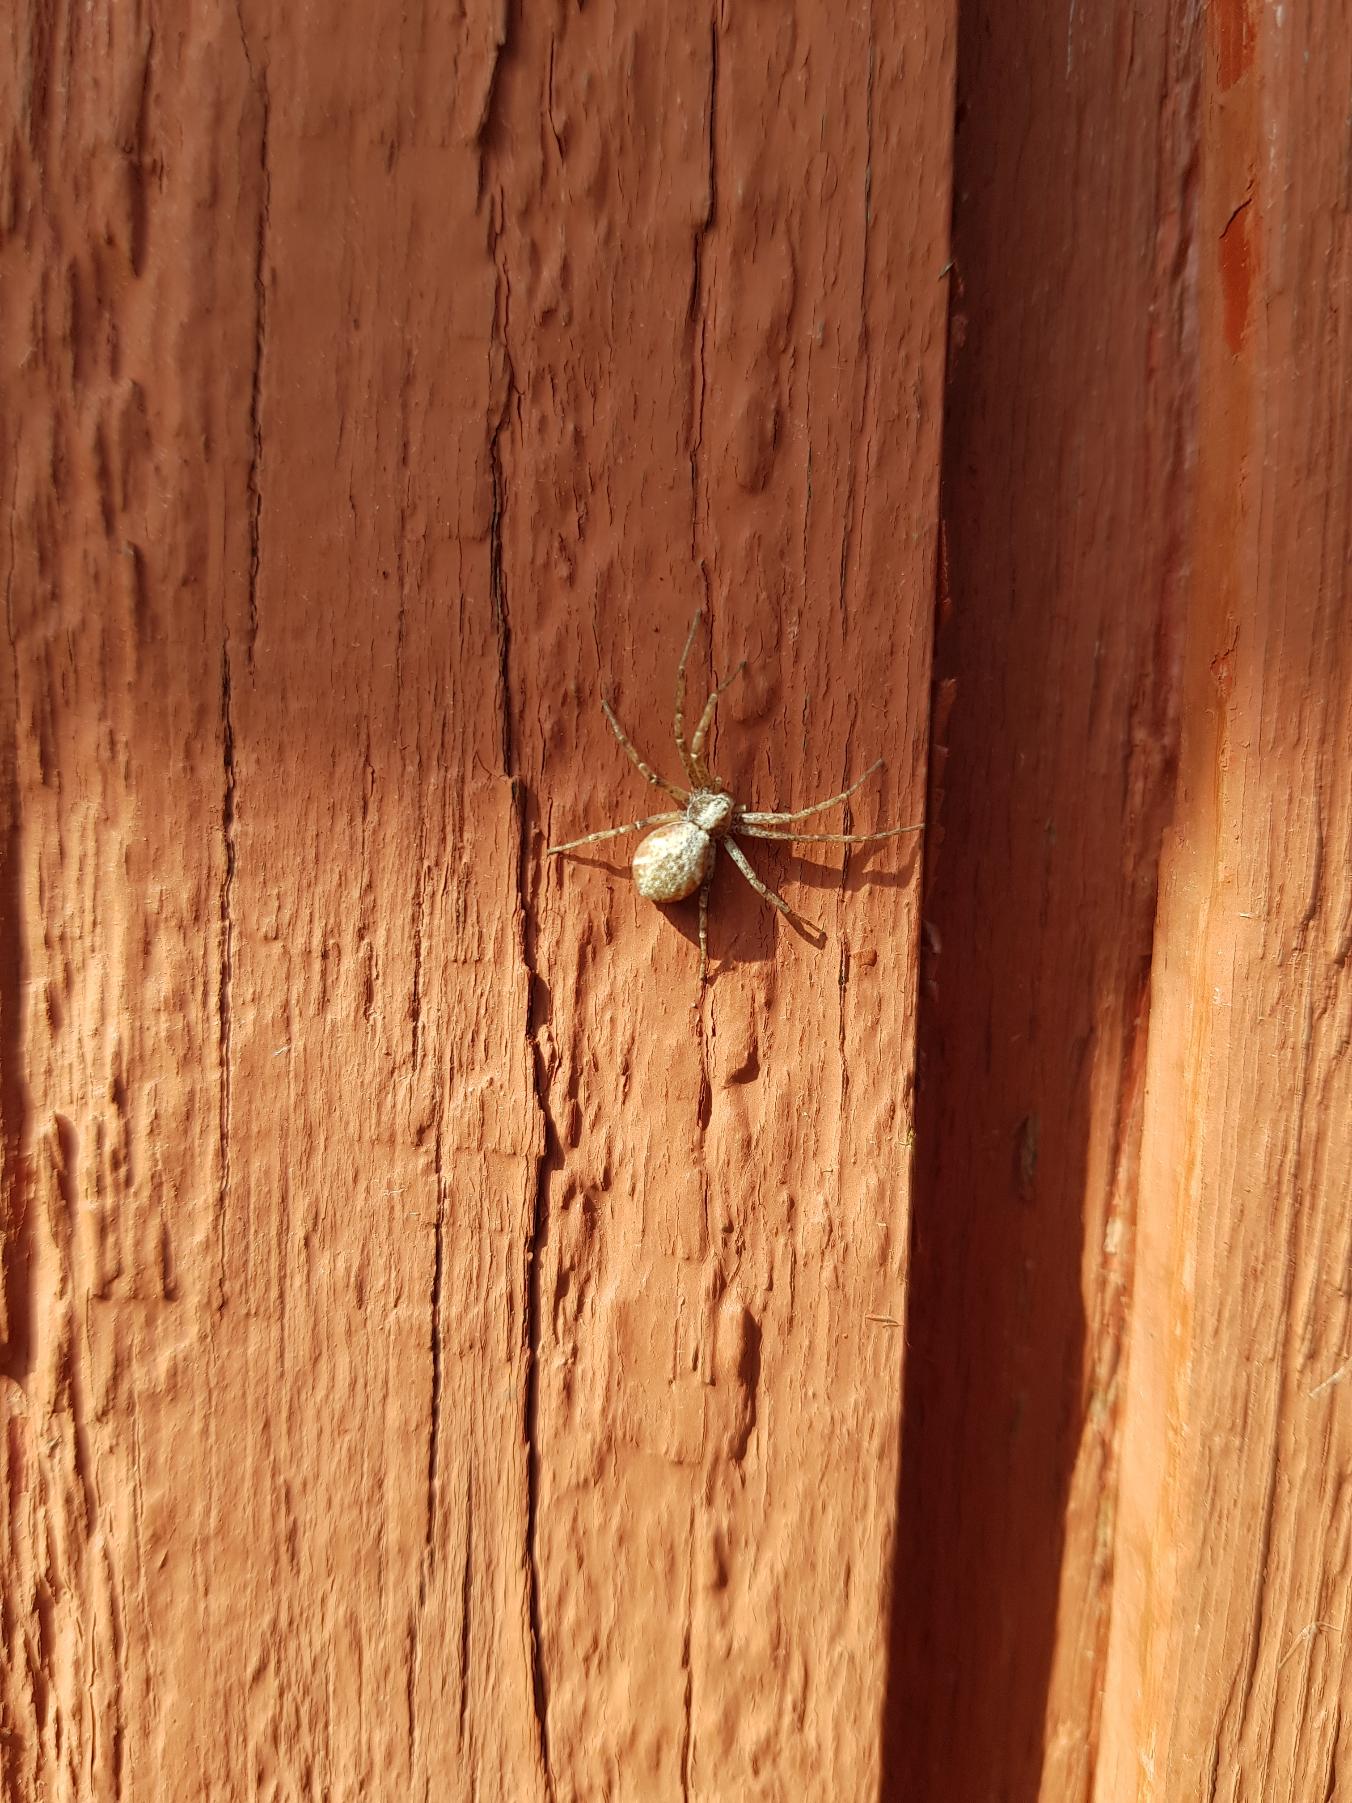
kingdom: Animalia
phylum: Arthropoda
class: Arachnida
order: Araneae
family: Philodromidae
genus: Philodromus
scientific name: Philodromus
